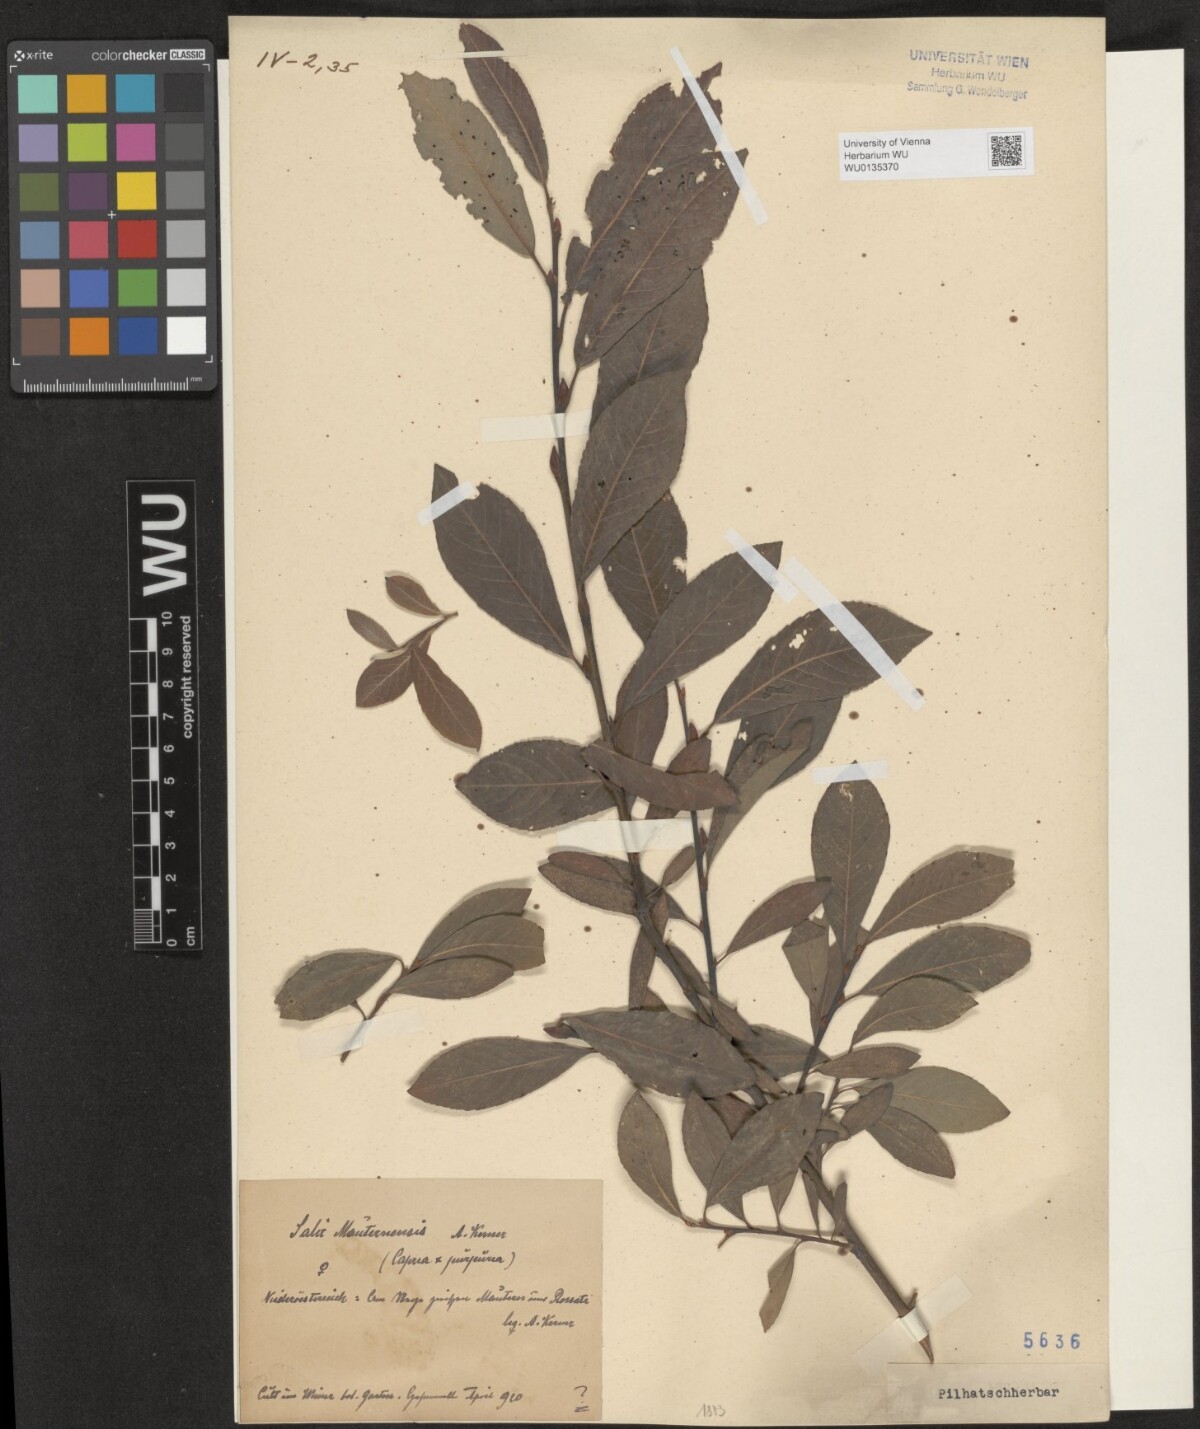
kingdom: Plantae
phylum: Tracheophyta
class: Magnoliopsida
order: Malpighiales
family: Salicaceae
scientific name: Salicaceae
